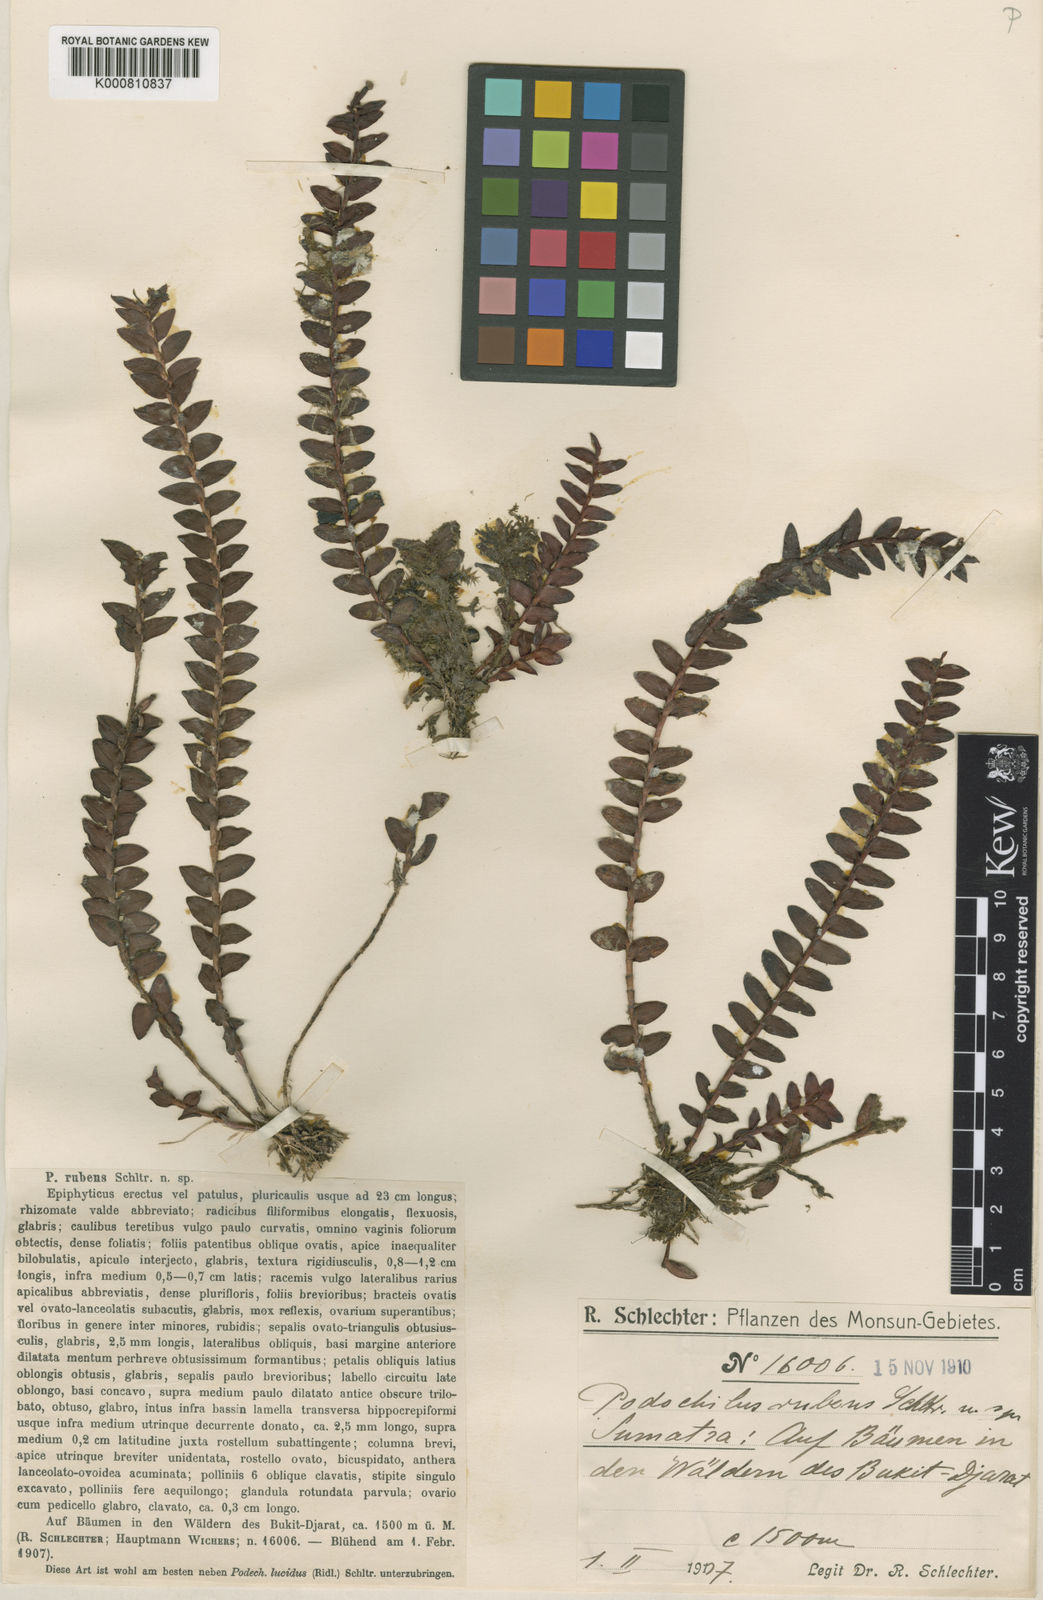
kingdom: Plantae
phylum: Tracheophyta
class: Liliopsida
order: Asparagales
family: Orchidaceae
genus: Appendicula
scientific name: Appendicula rubens
